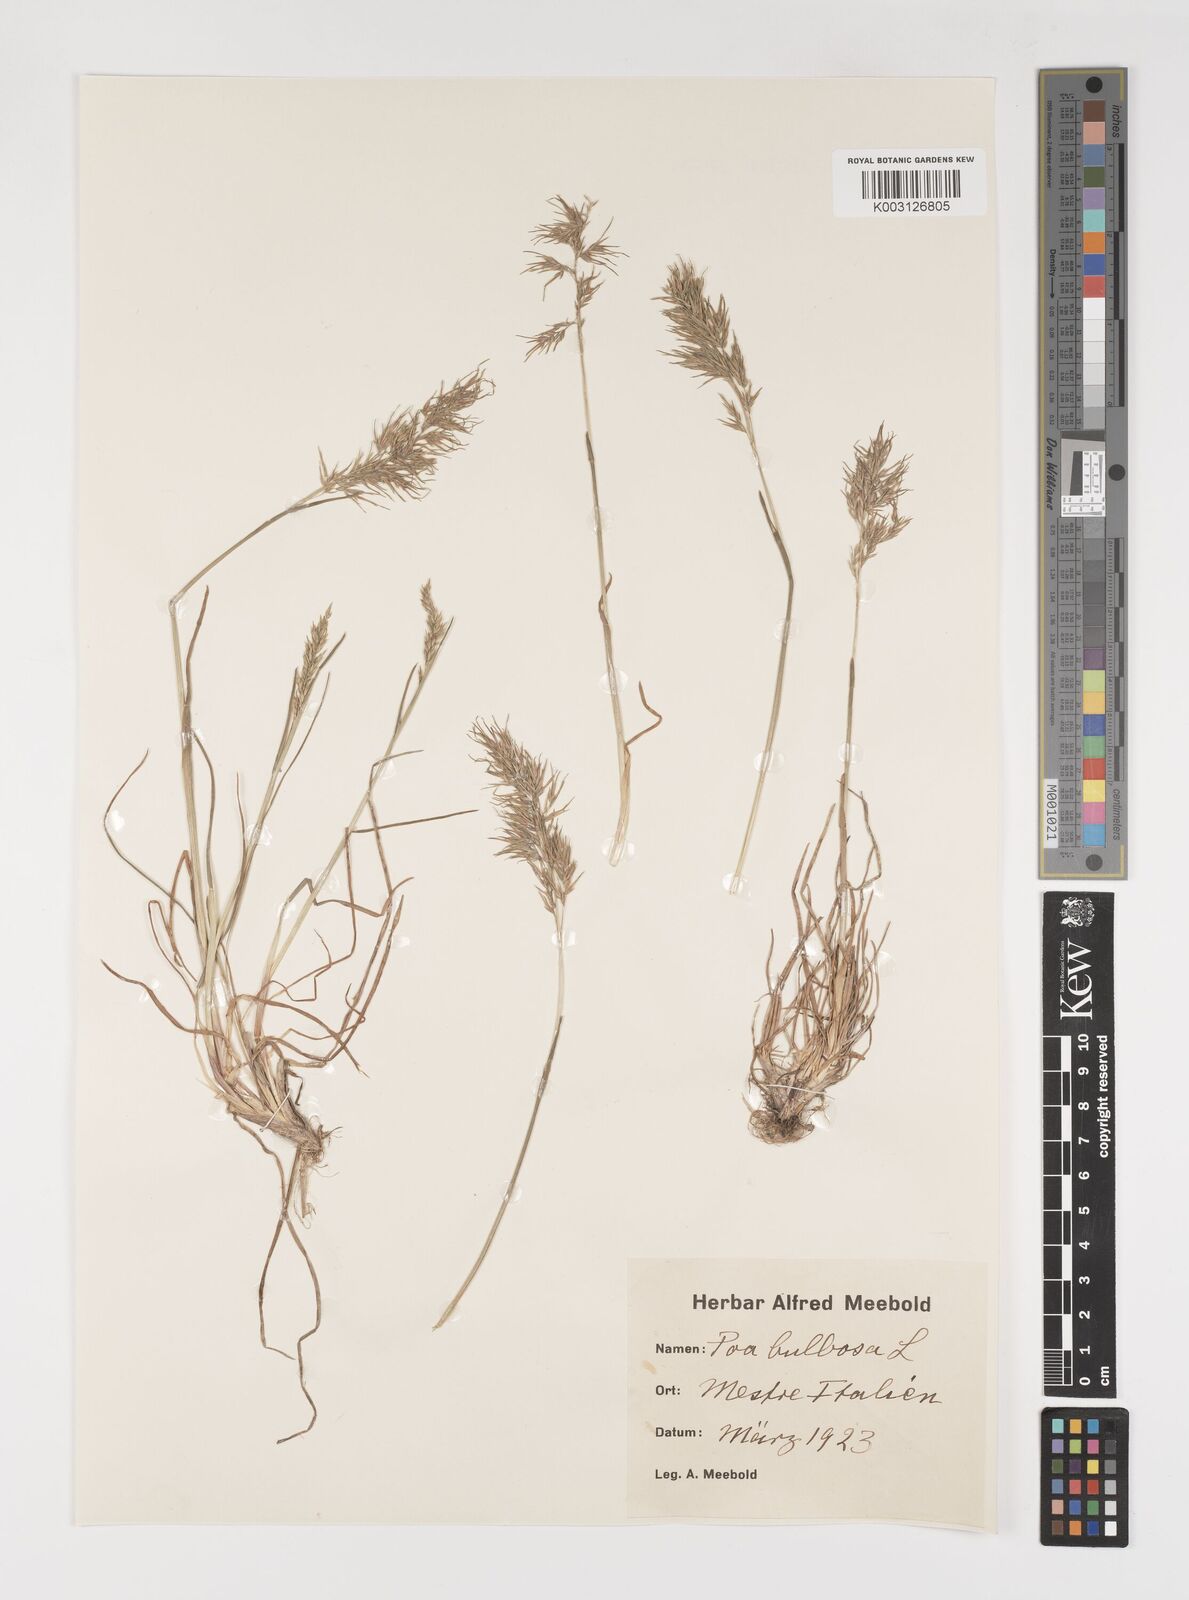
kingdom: Plantae
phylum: Tracheophyta
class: Liliopsida
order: Poales
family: Poaceae
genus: Poa
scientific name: Poa bulbosa
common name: Bulbous bluegrass
